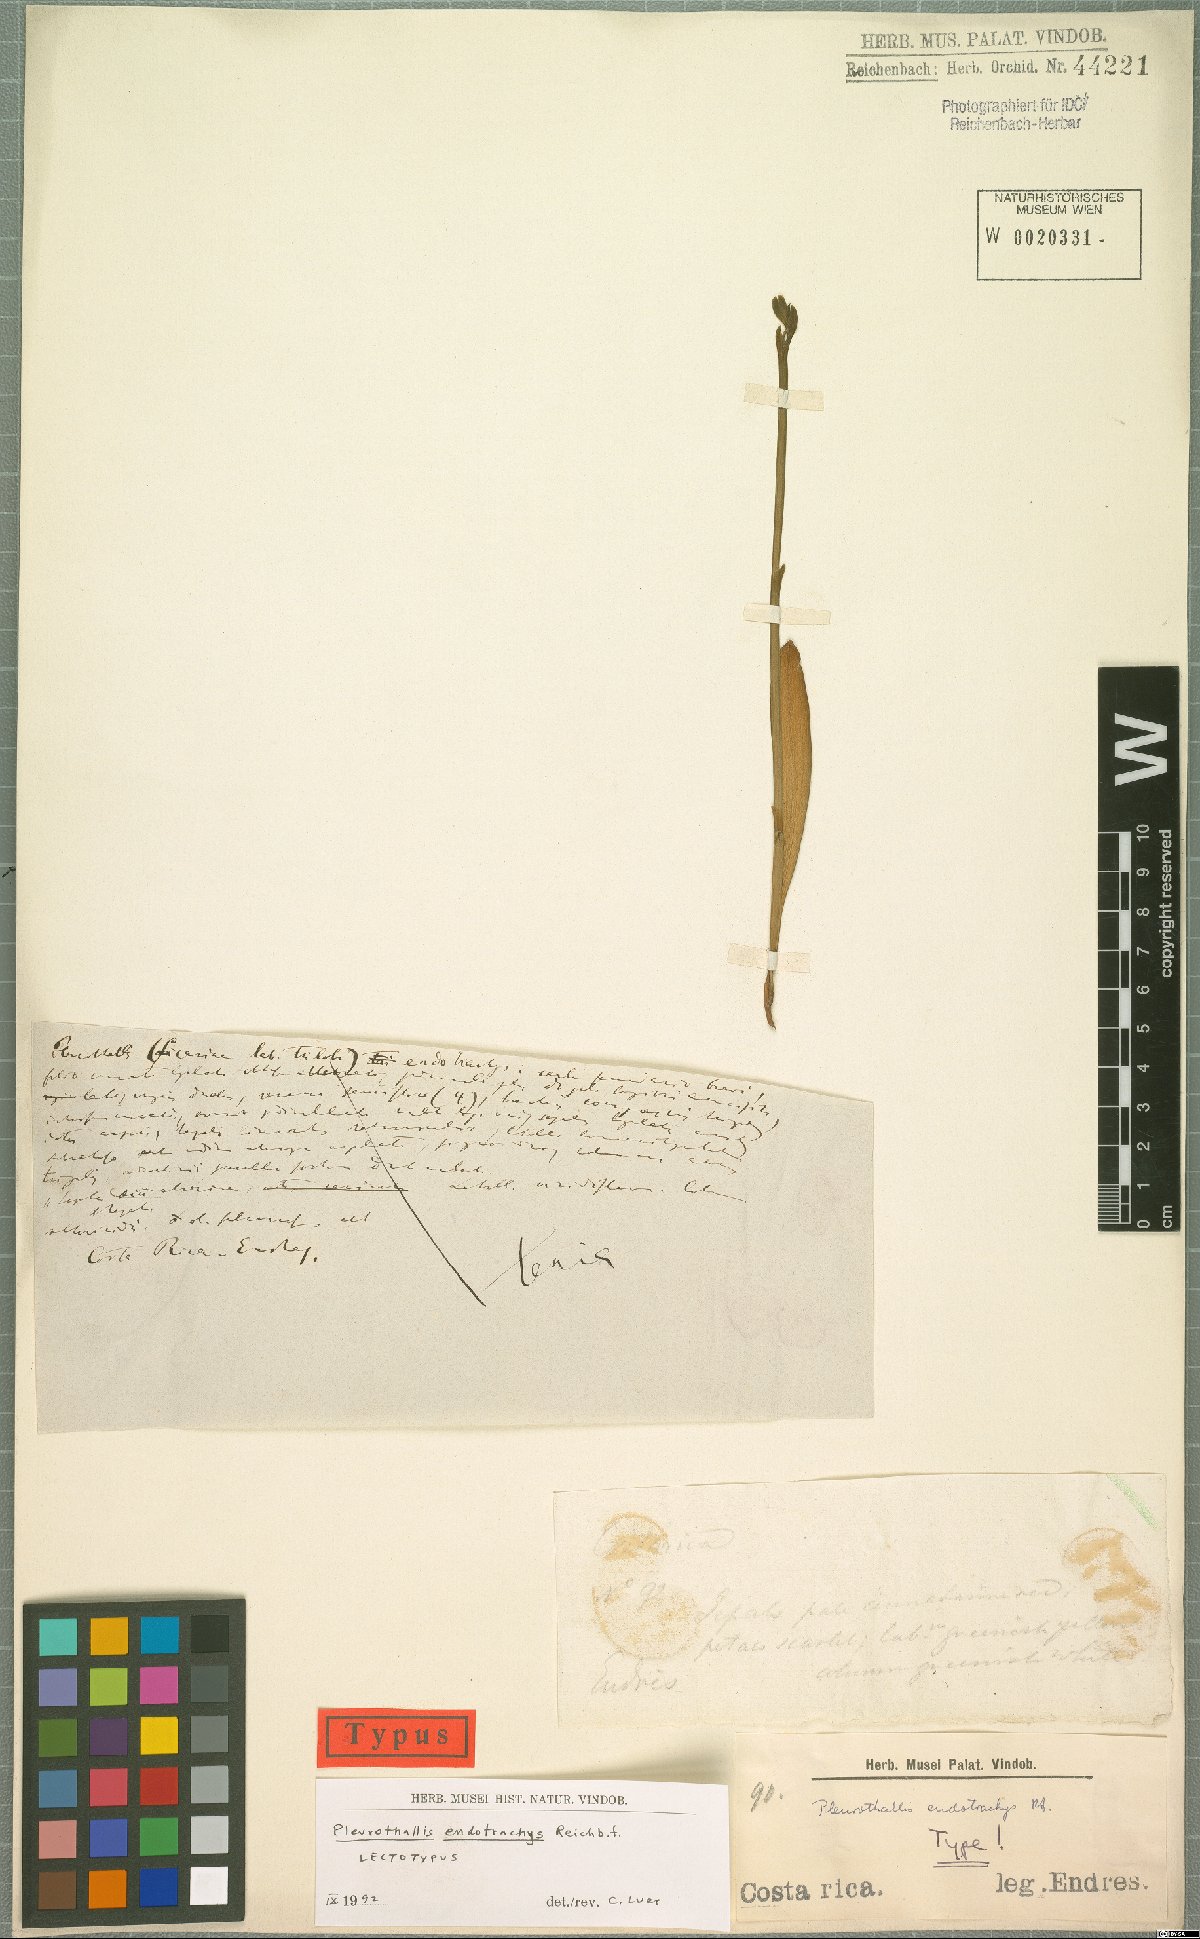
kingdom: Plantae
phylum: Tracheophyta
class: Liliopsida
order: Asparagales
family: Orchidaceae
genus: Specklinia
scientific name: Specklinia endotrachys
